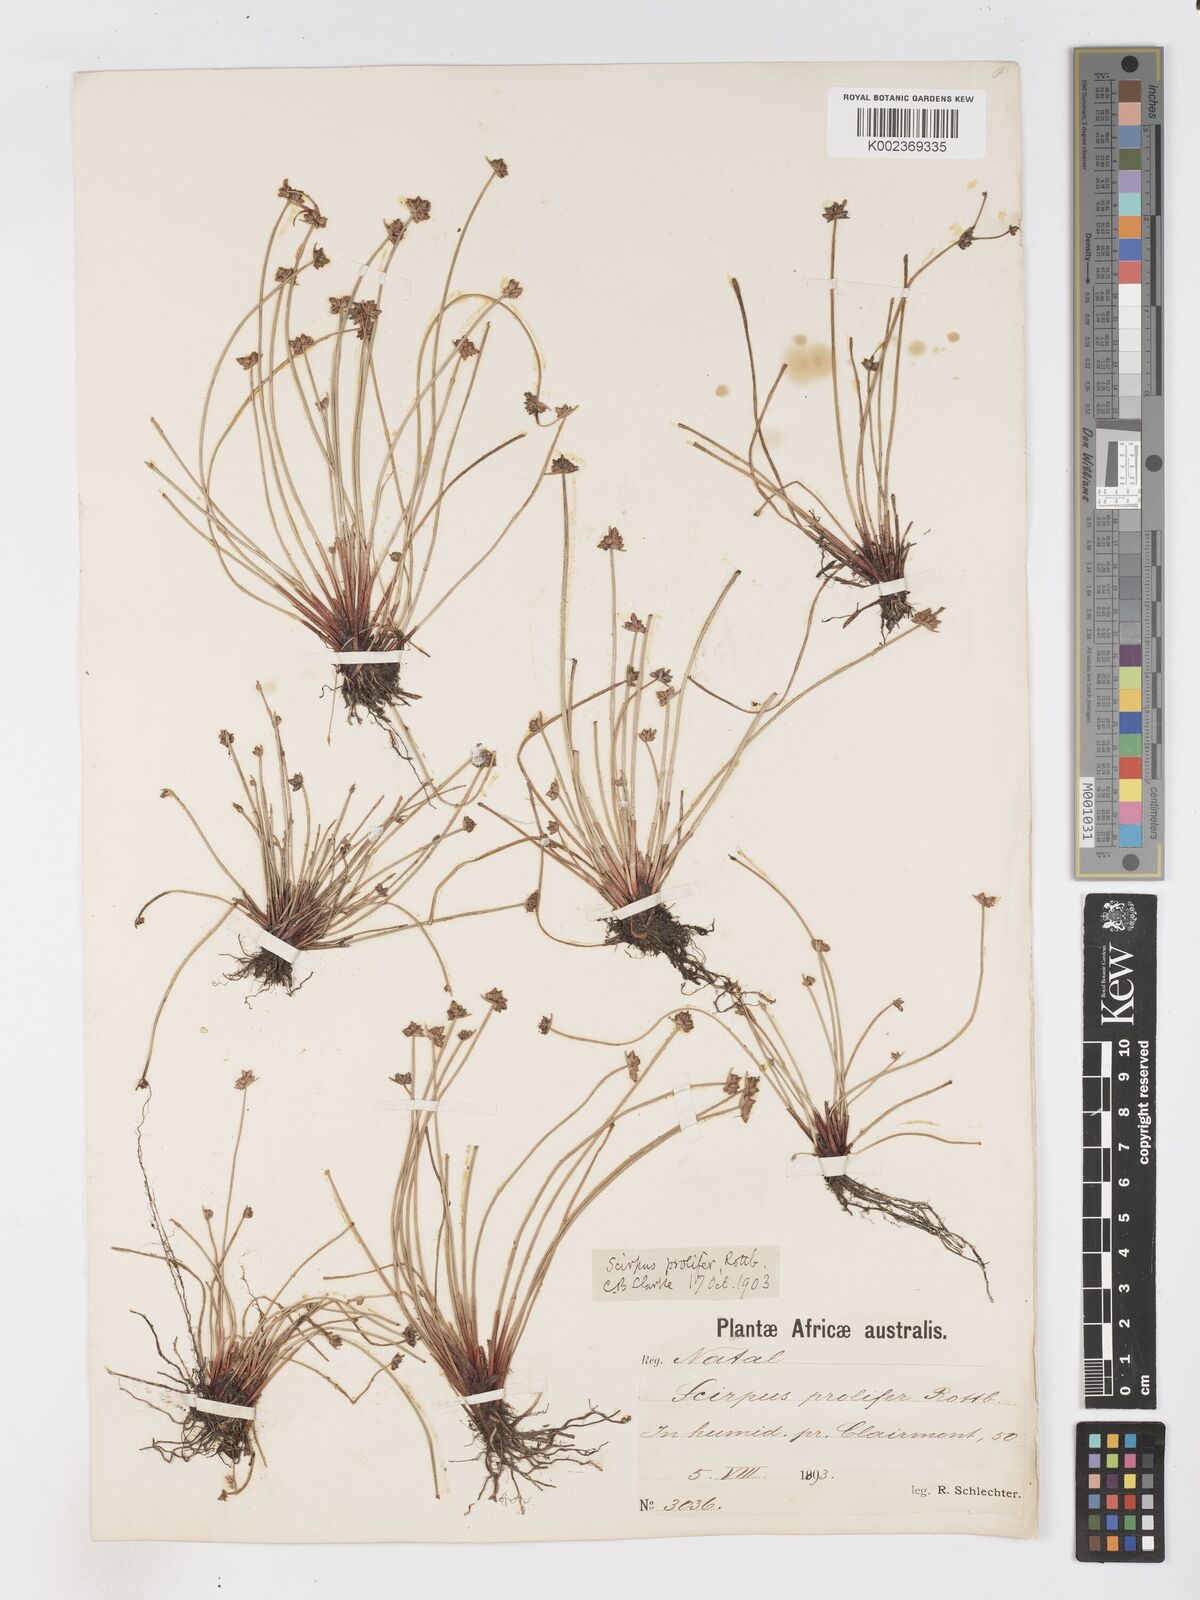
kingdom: Plantae
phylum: Tracheophyta
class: Liliopsida
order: Poales
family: Cyperaceae
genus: Isolepis
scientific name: Isolepis prolifera
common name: Proliferating bulrush
